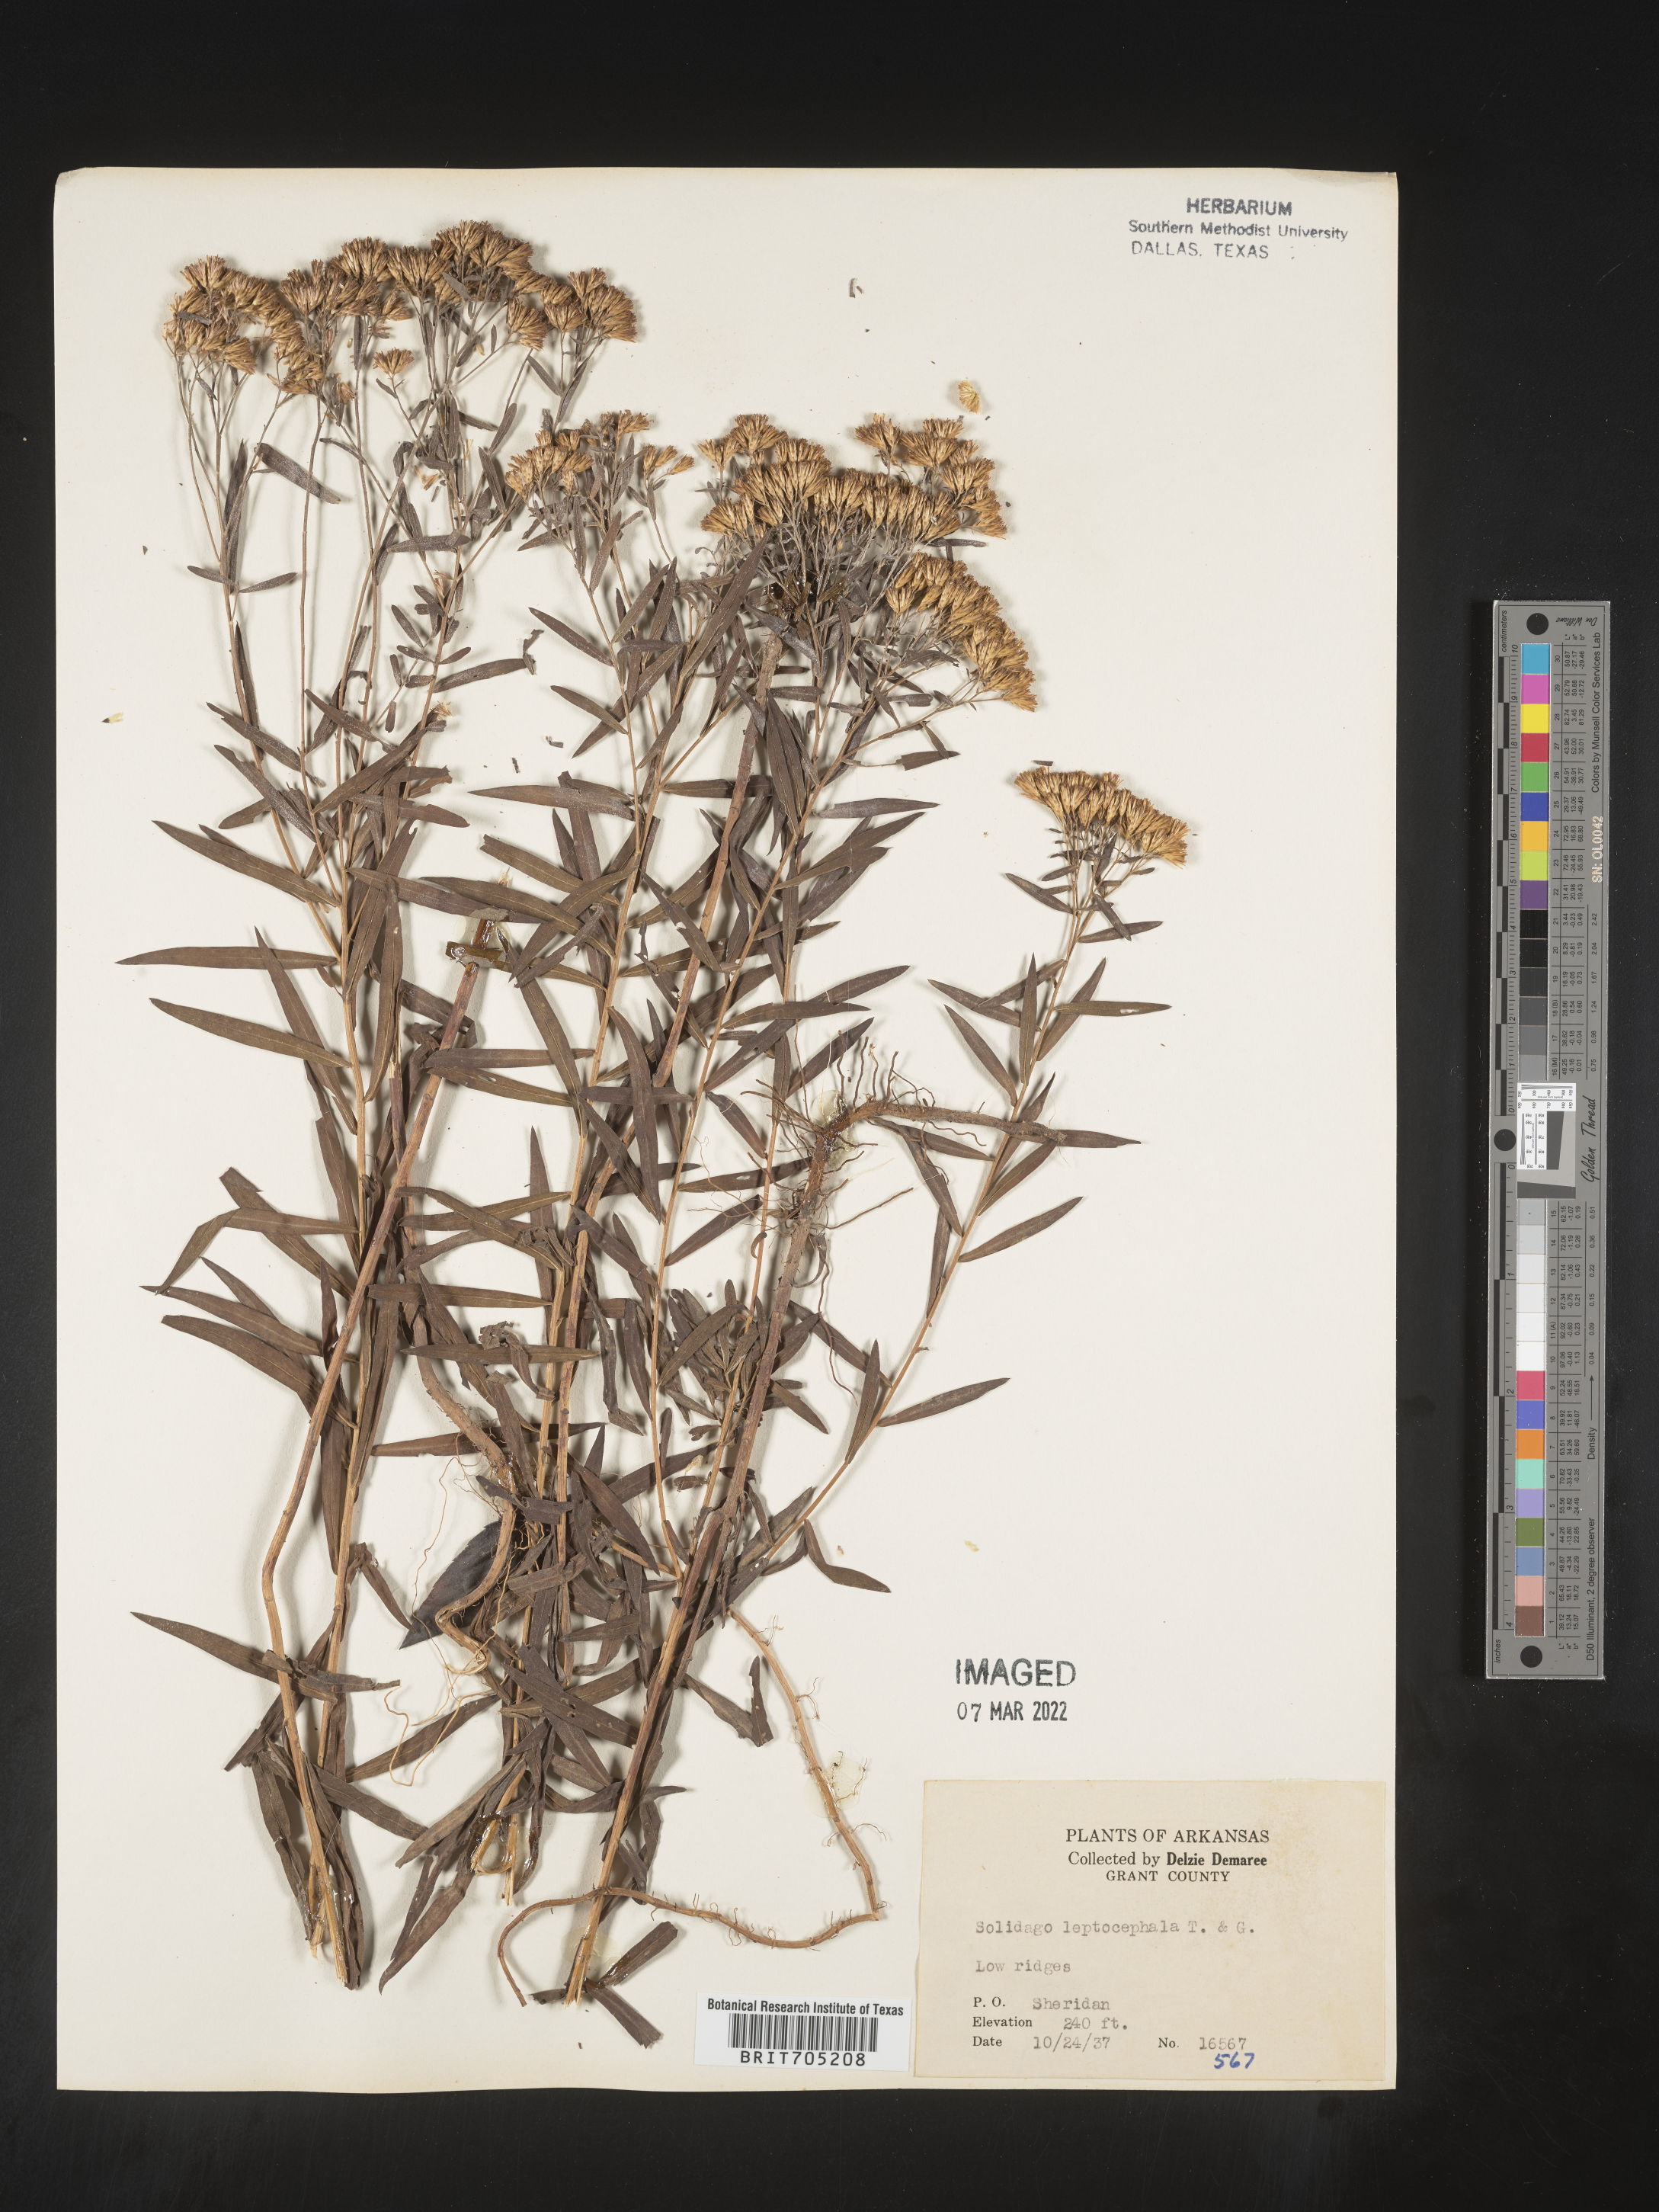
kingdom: Plantae
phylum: Tracheophyta
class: Magnoliopsida
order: Asterales
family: Asteraceae
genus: Euthamia
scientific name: Euthamia leptocephala
